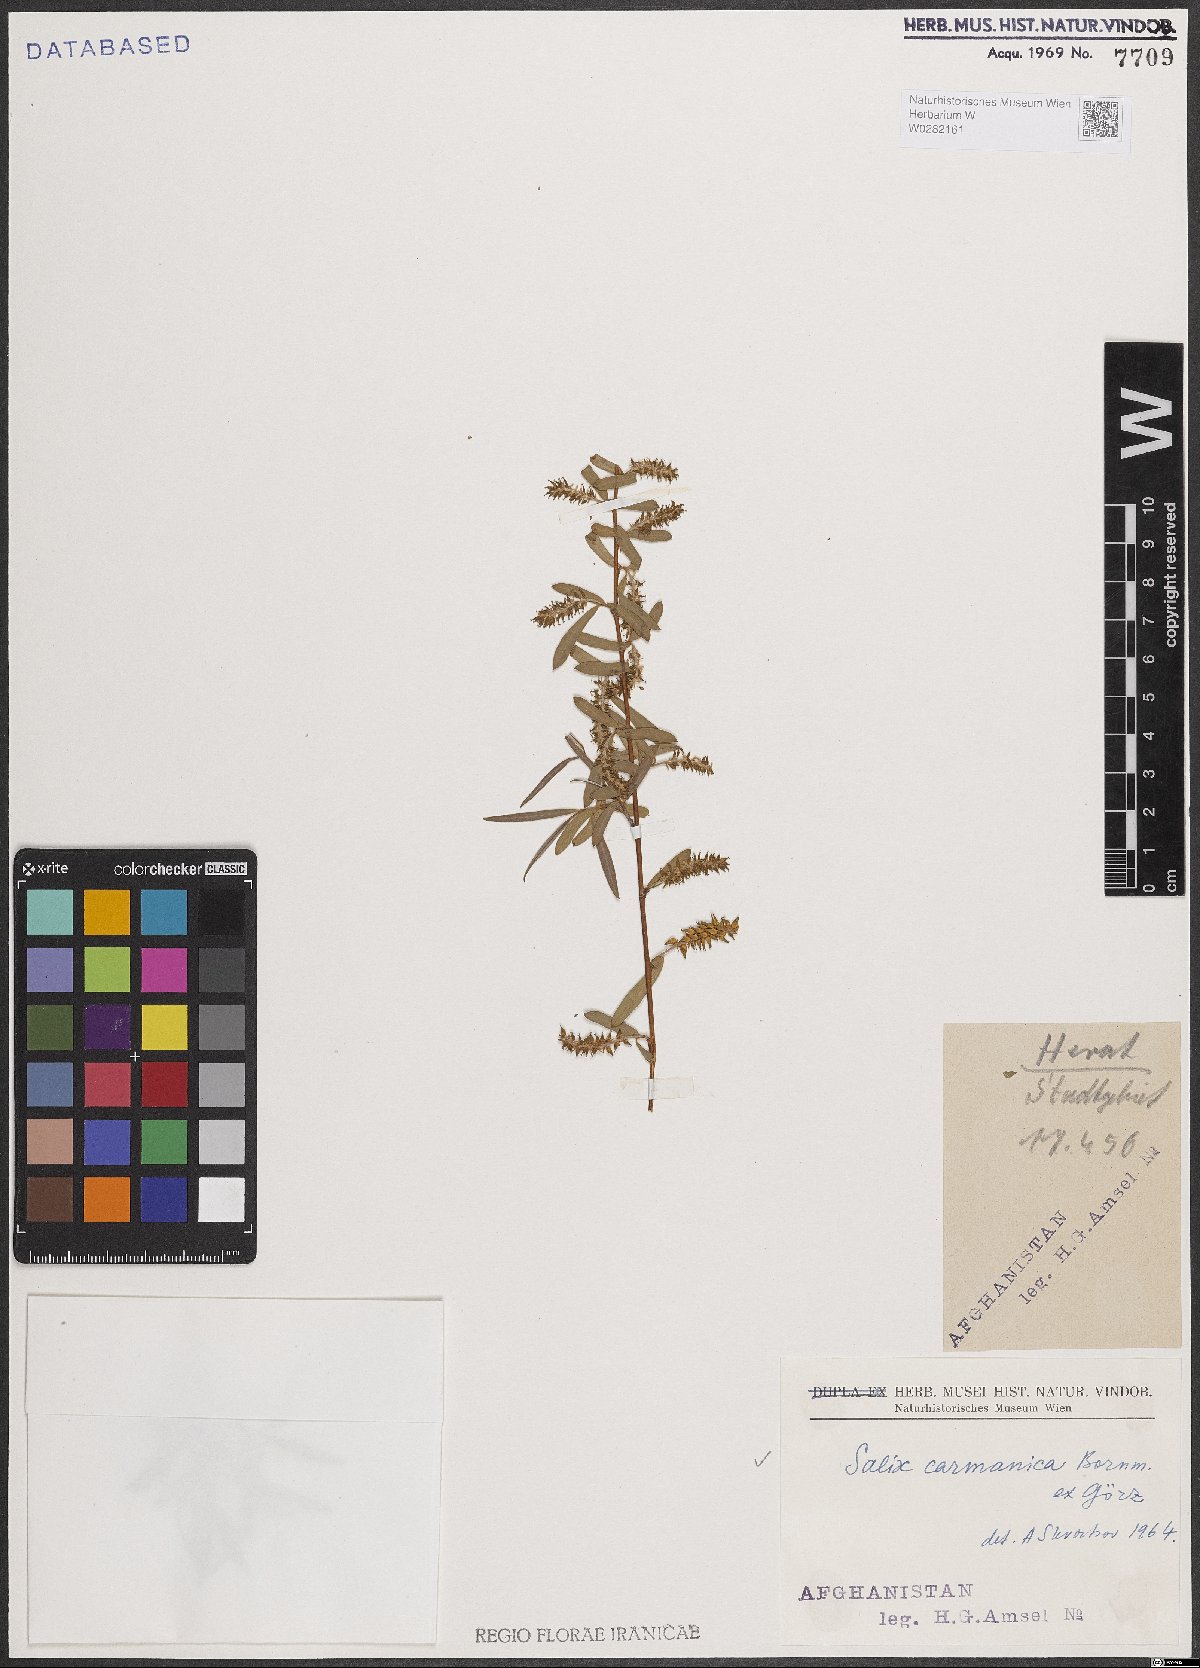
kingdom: Plantae
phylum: Tracheophyta
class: Magnoliopsida
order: Malpighiales
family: Salicaceae
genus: Salix
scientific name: Salix carmanica
